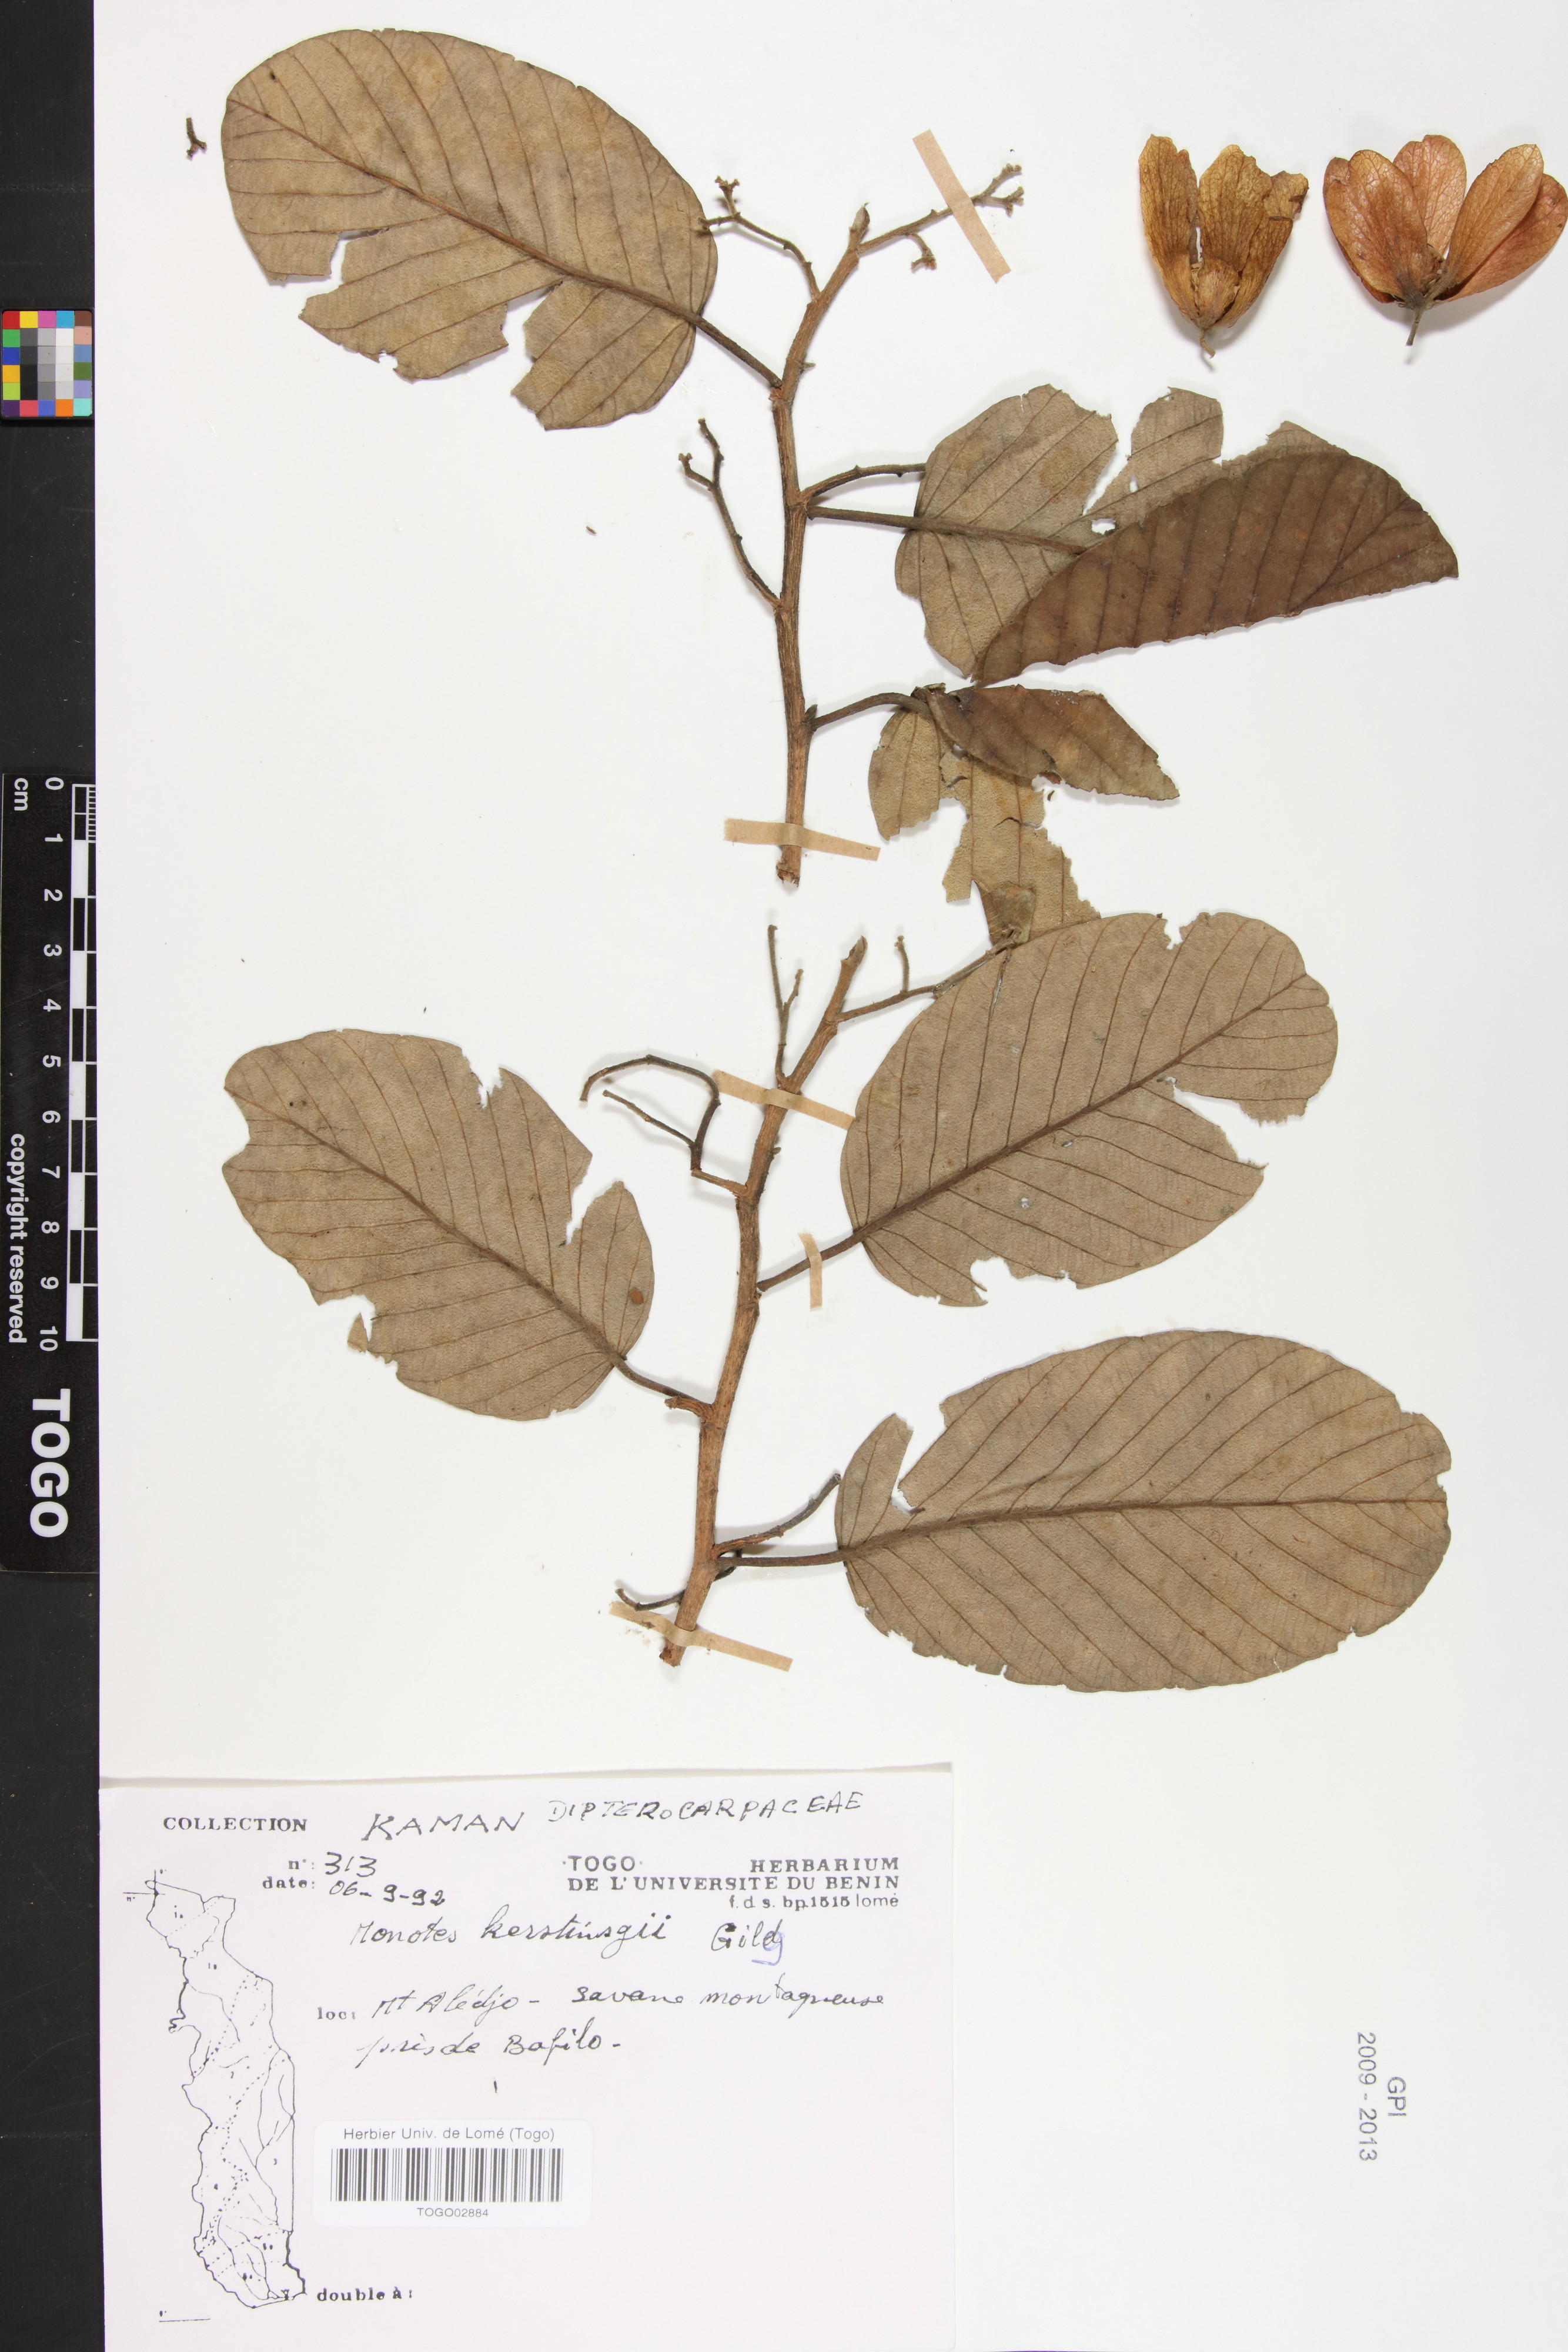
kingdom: Plantae
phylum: Tracheophyta
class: Magnoliopsida
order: Malvales
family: Dipterocarpaceae
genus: Monotes
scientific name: Monotes kerstingii
